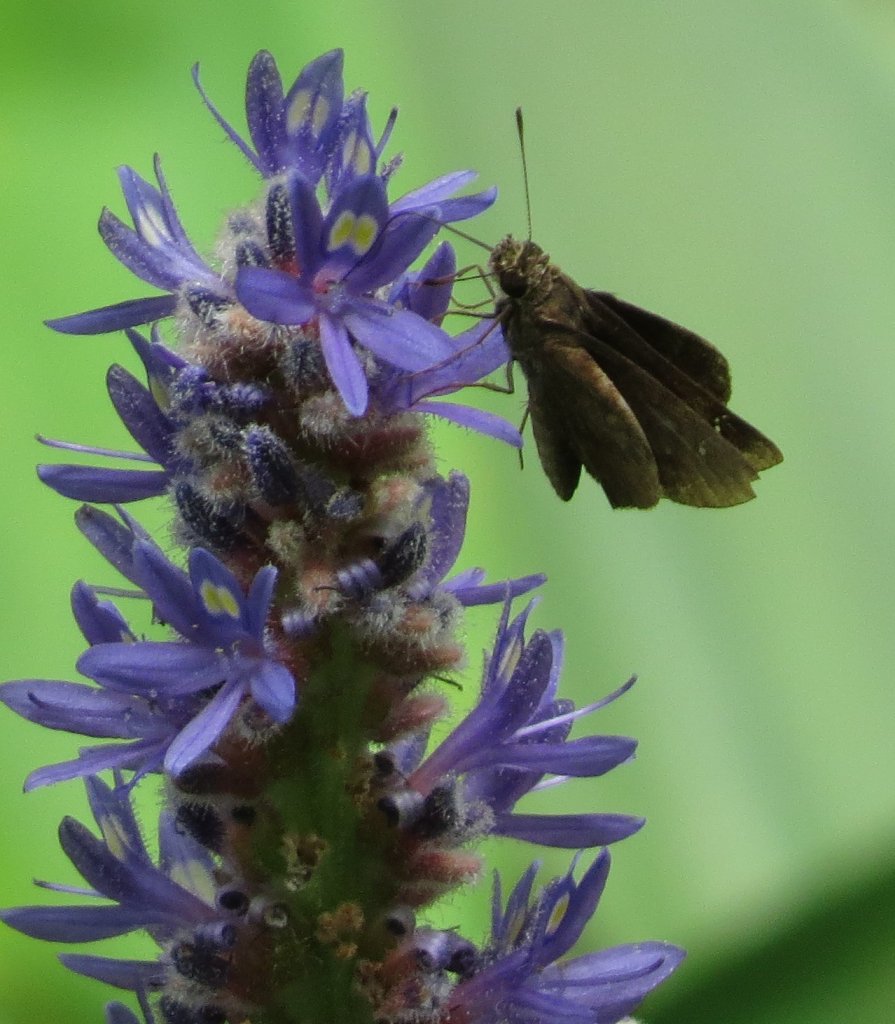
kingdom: Animalia
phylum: Arthropoda
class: Insecta
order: Lepidoptera
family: Hesperiidae
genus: Euphyes
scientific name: Euphyes vestris
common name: Dun Skipper
